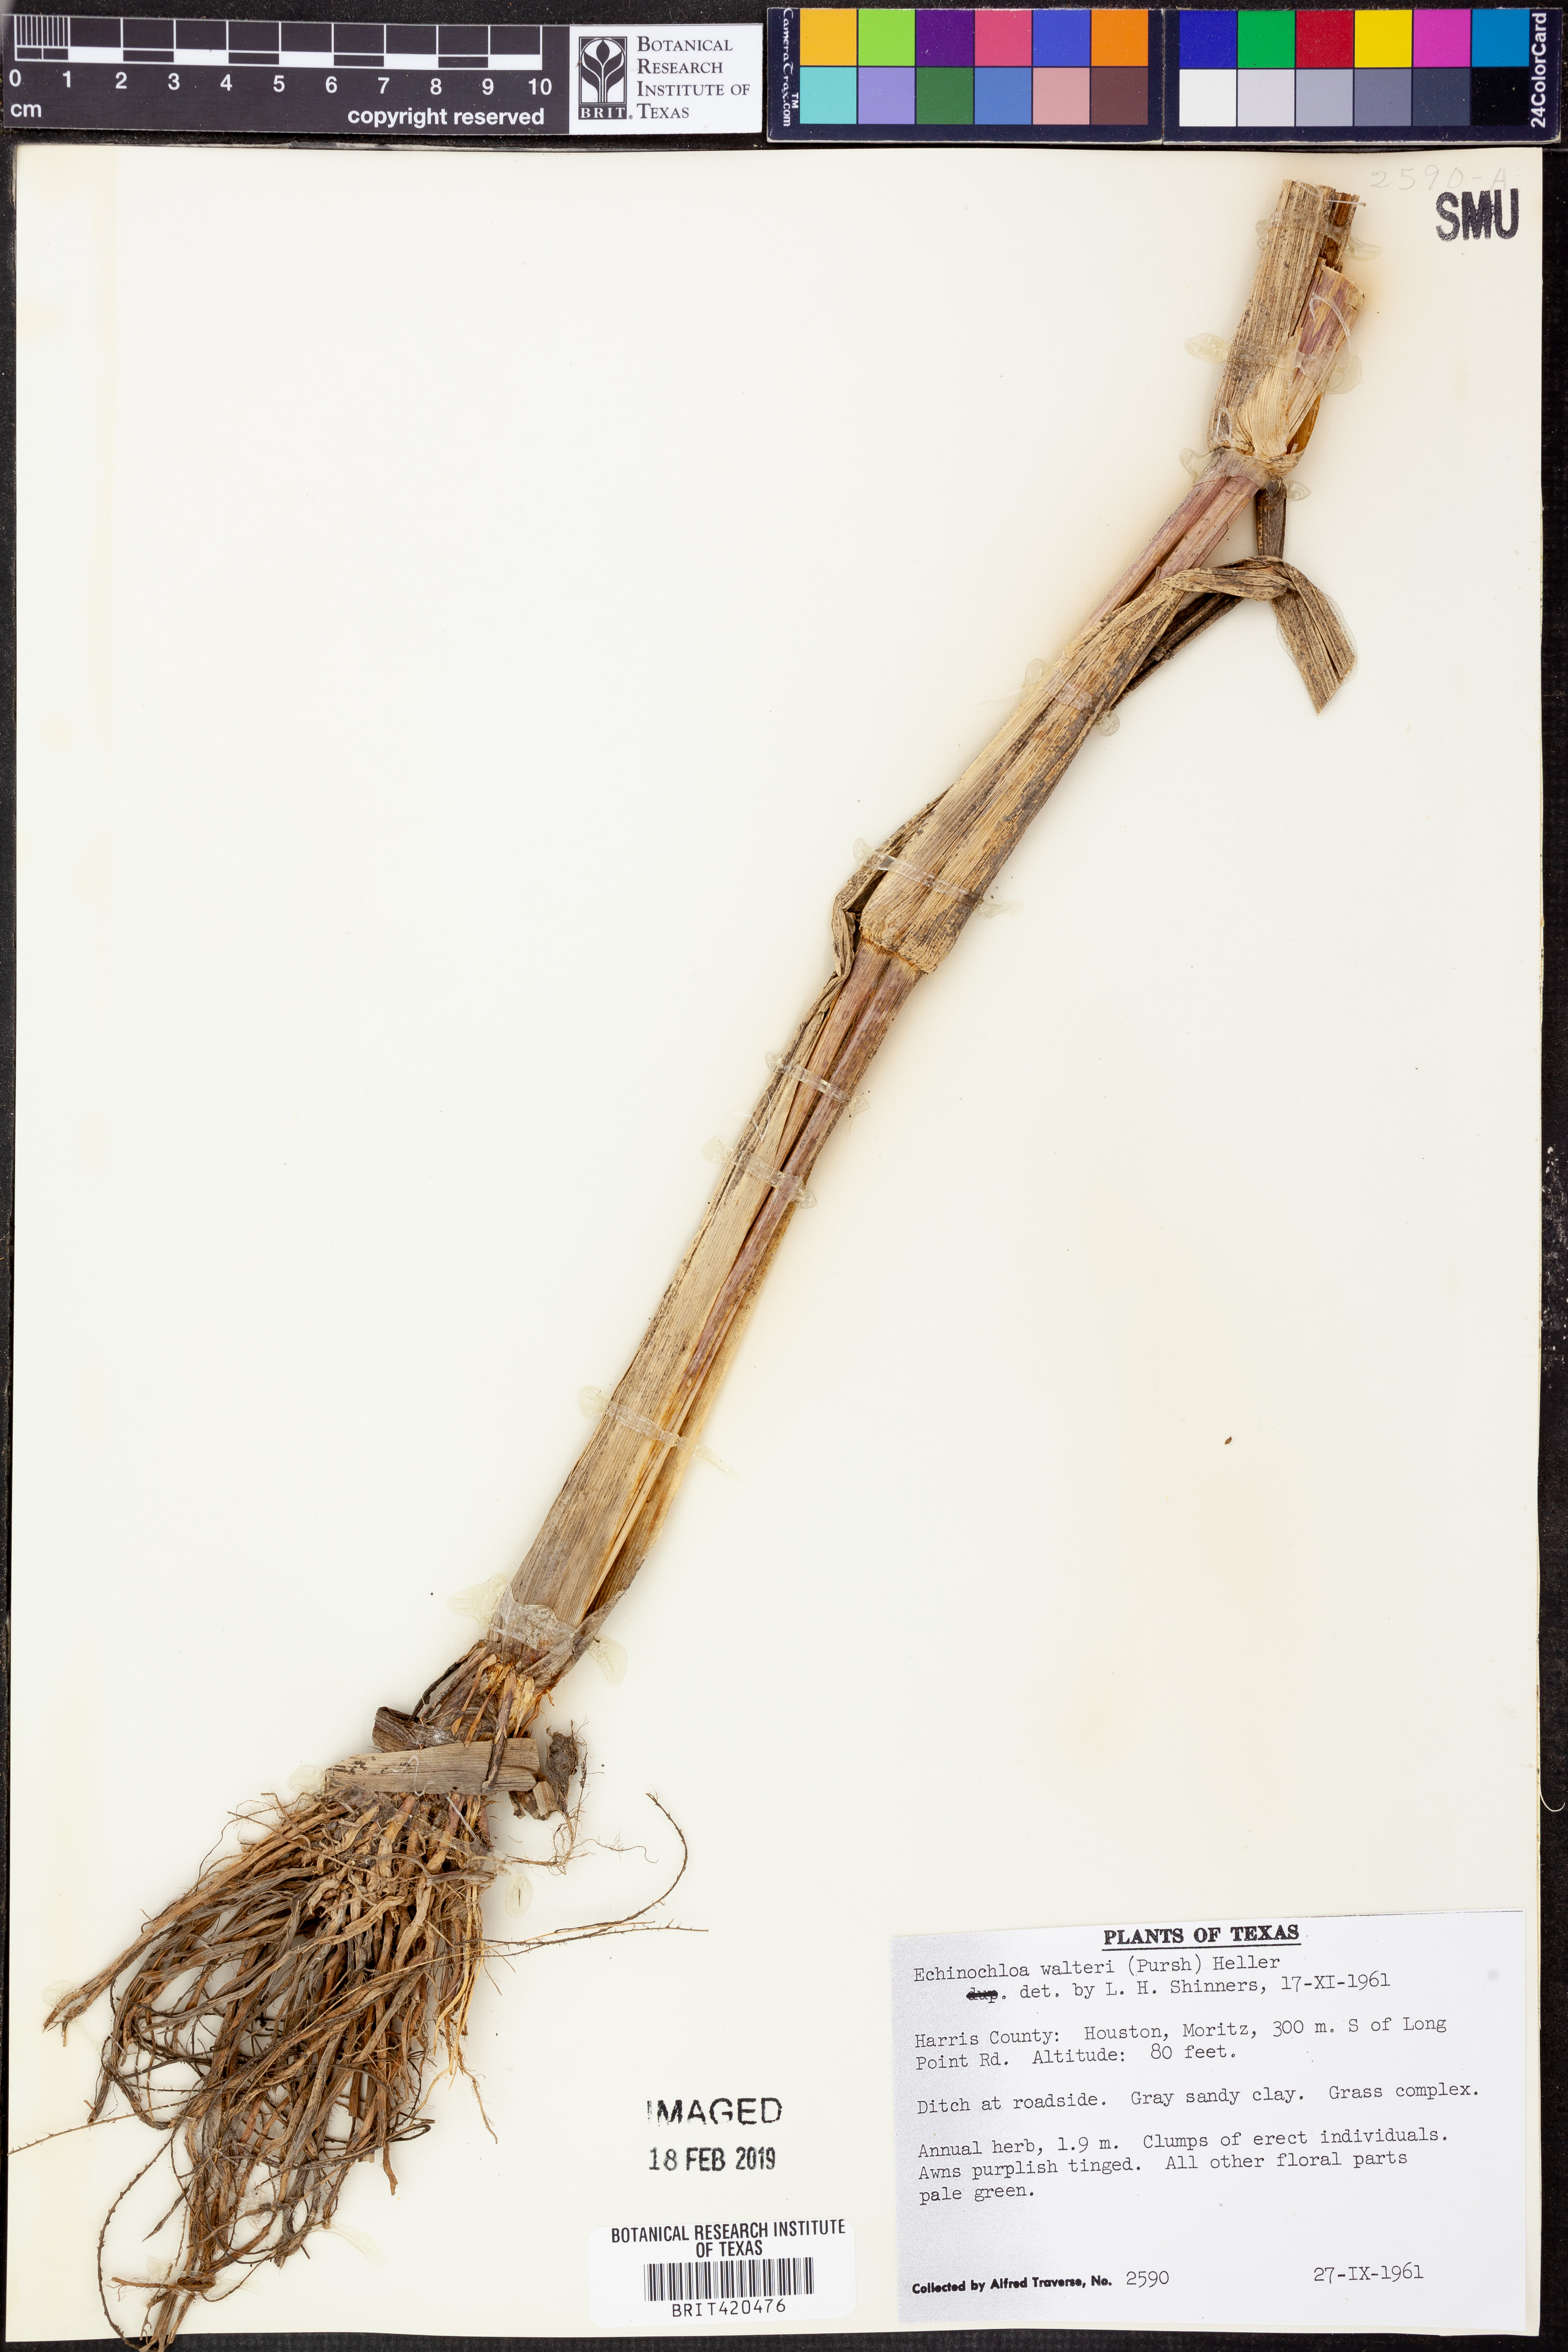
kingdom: Plantae
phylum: Tracheophyta
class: Liliopsida
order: Poales
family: Poaceae
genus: Echinochloa
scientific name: Echinochloa walteri
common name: Coast barnyard grass
